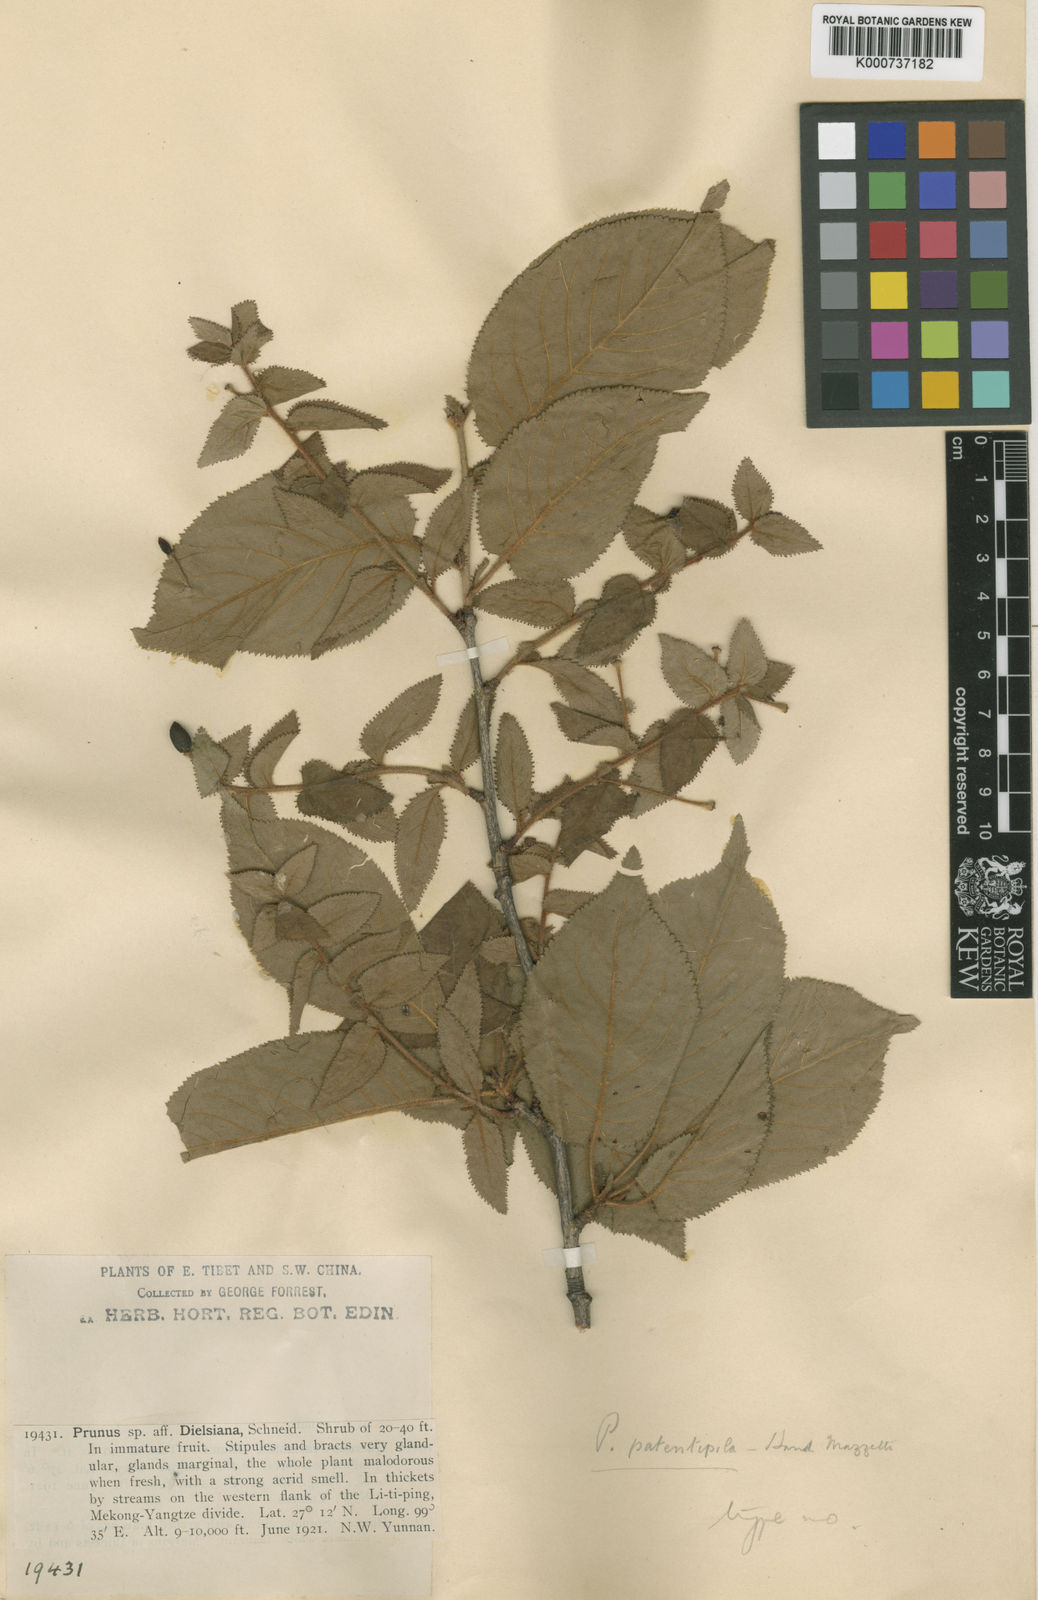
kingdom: Plantae
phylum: Tracheophyta
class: Magnoliopsida
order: Rosales
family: Rosaceae
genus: Prunus
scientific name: Prunus patentipila
